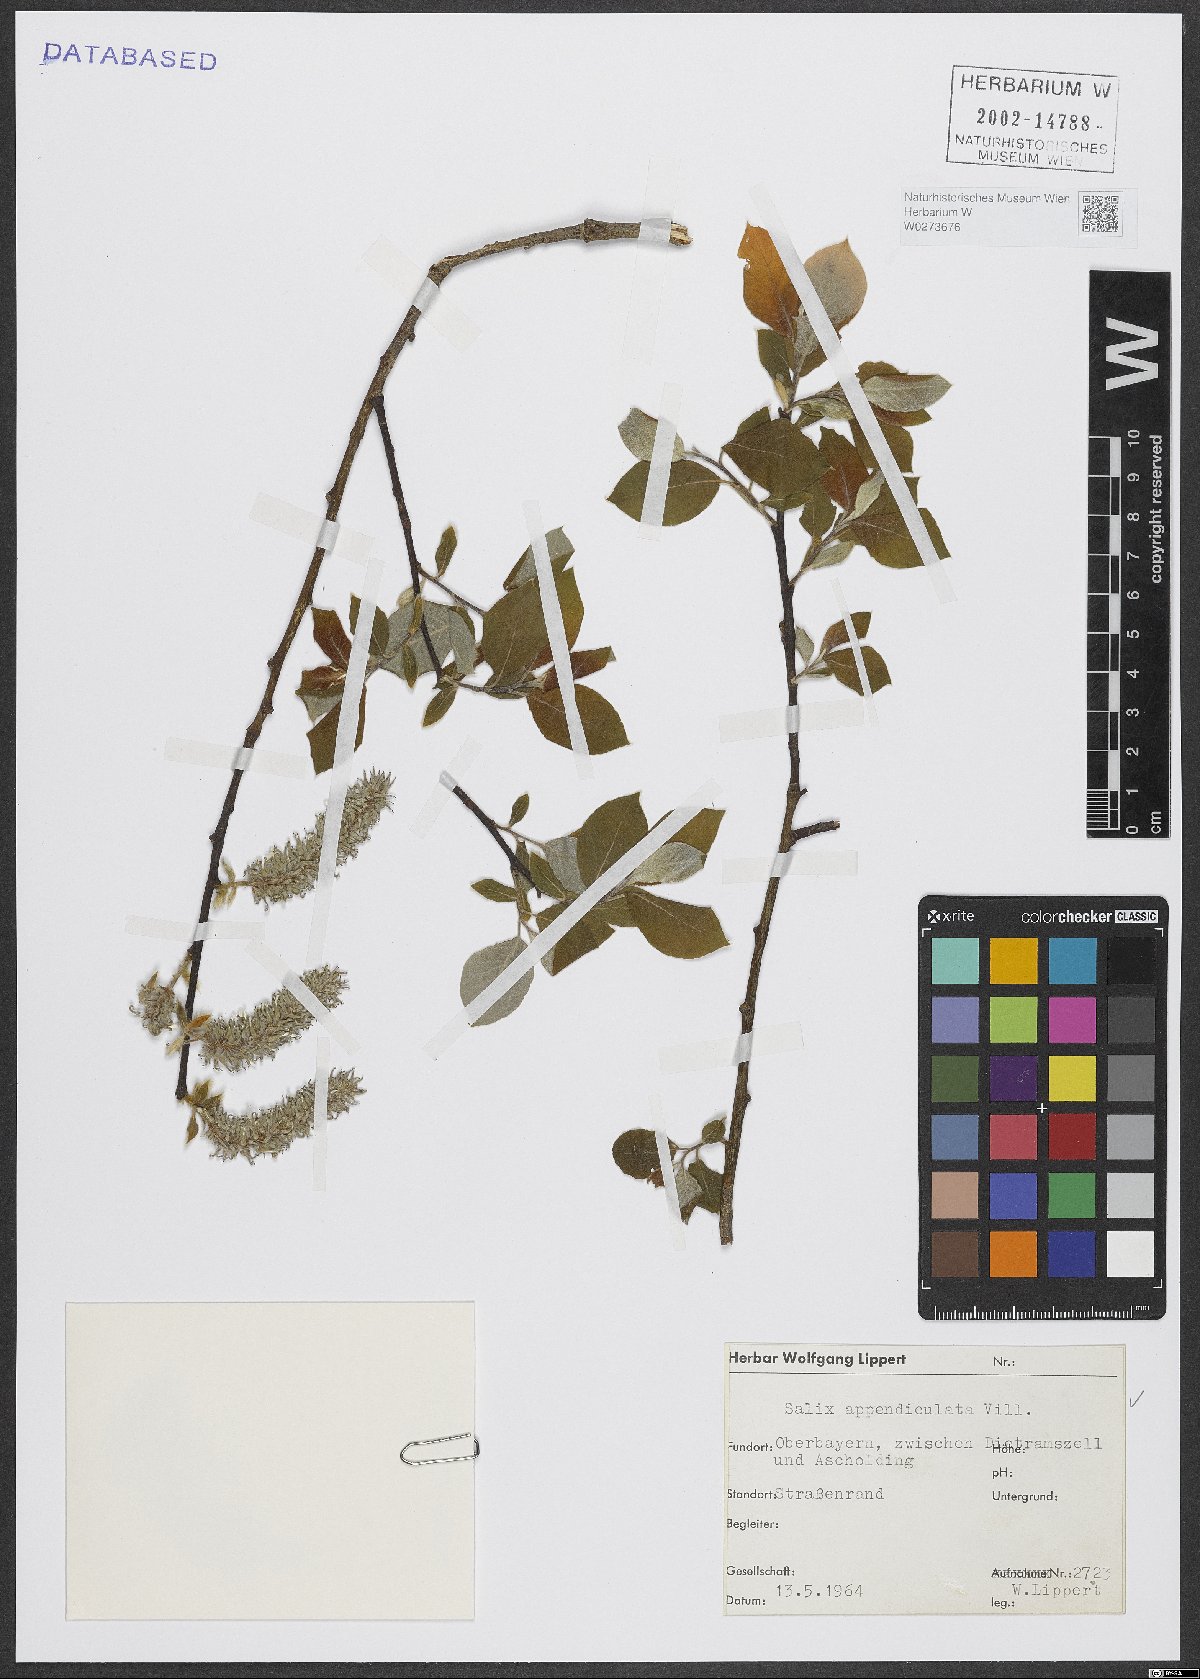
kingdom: Plantae
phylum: Tracheophyta
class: Magnoliopsida
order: Malpighiales
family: Salicaceae
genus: Salix
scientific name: Salix appendiculata
